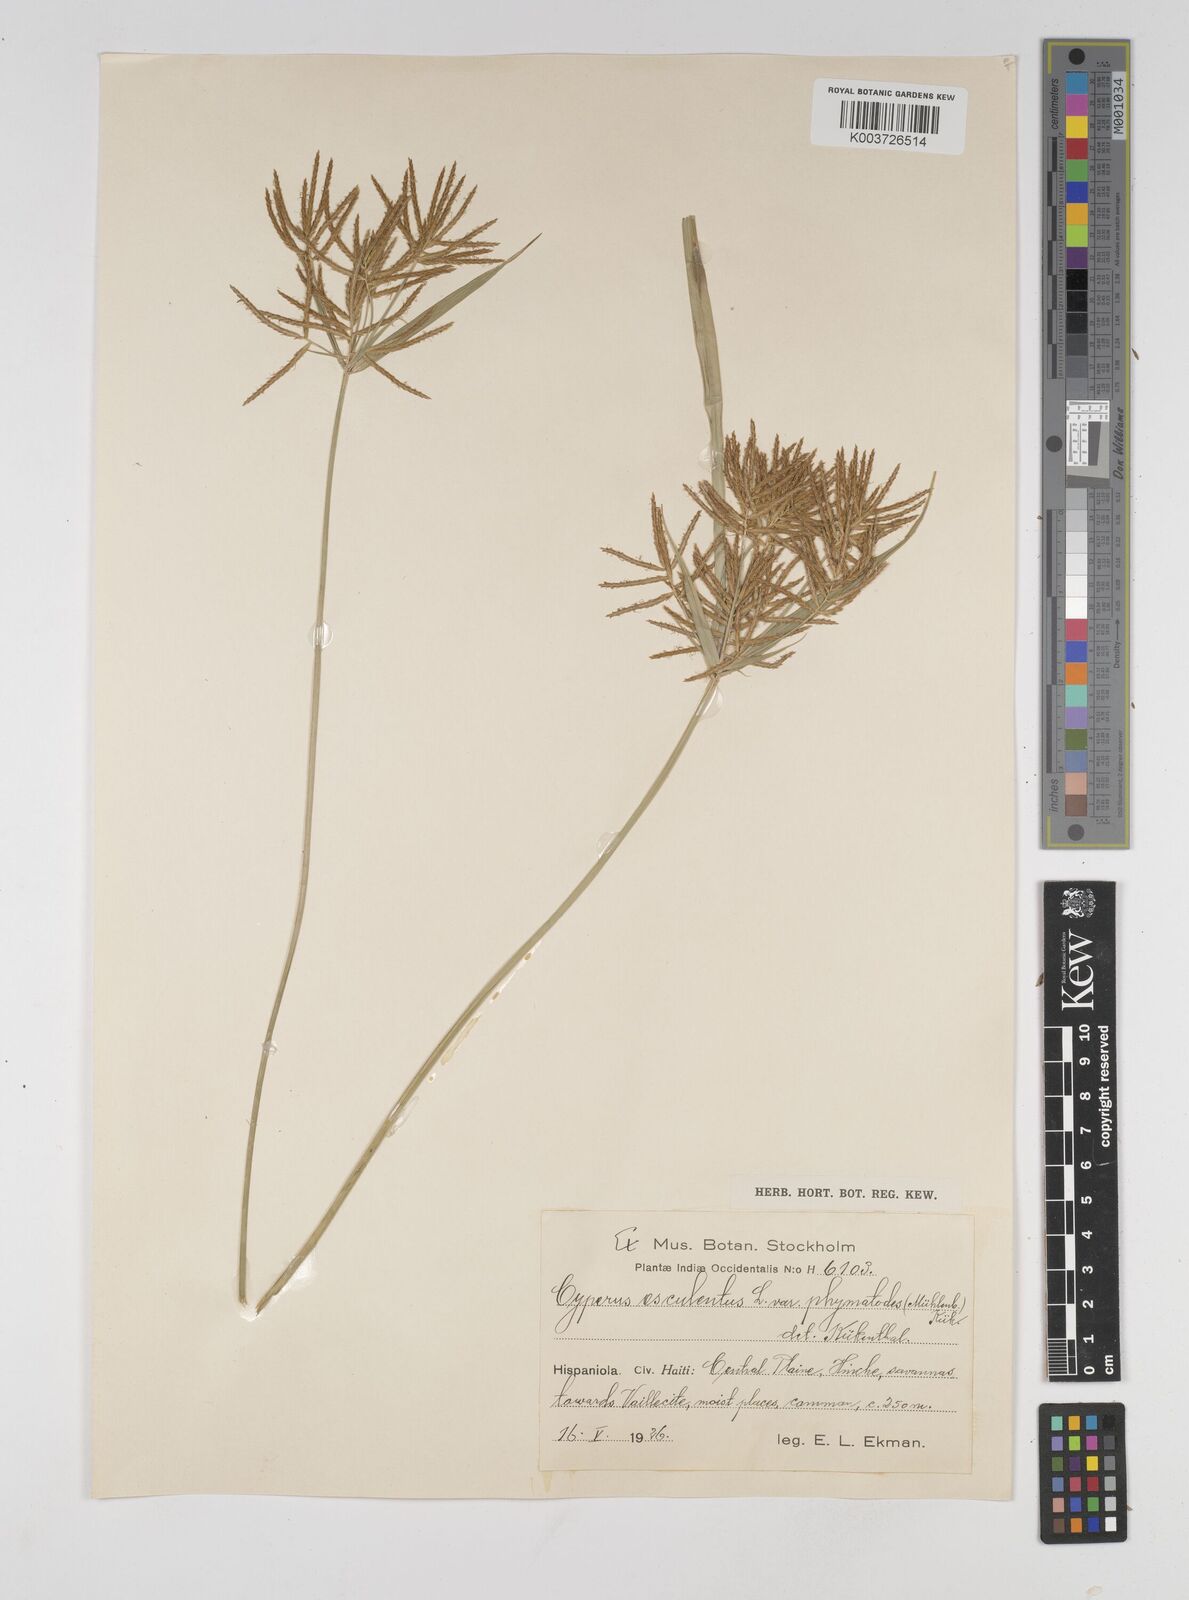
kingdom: Plantae
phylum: Tracheophyta
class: Liliopsida
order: Poales
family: Cyperaceae
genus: Cyperus
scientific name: Cyperus esculentus
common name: Yellow nutsedge
